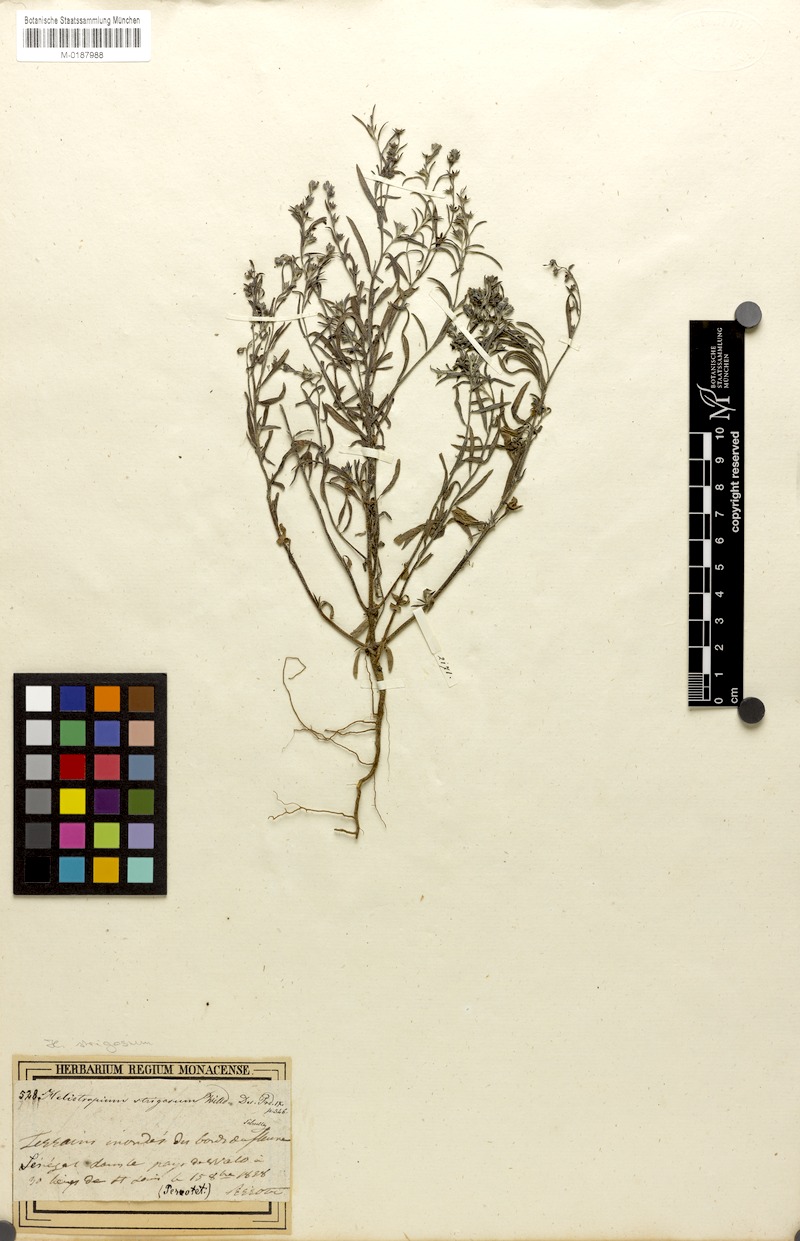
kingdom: Plantae
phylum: Tracheophyta
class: Magnoliopsida
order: Boraginales
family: Heliotropiaceae
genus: Euploca
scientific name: Euploca strigosa
